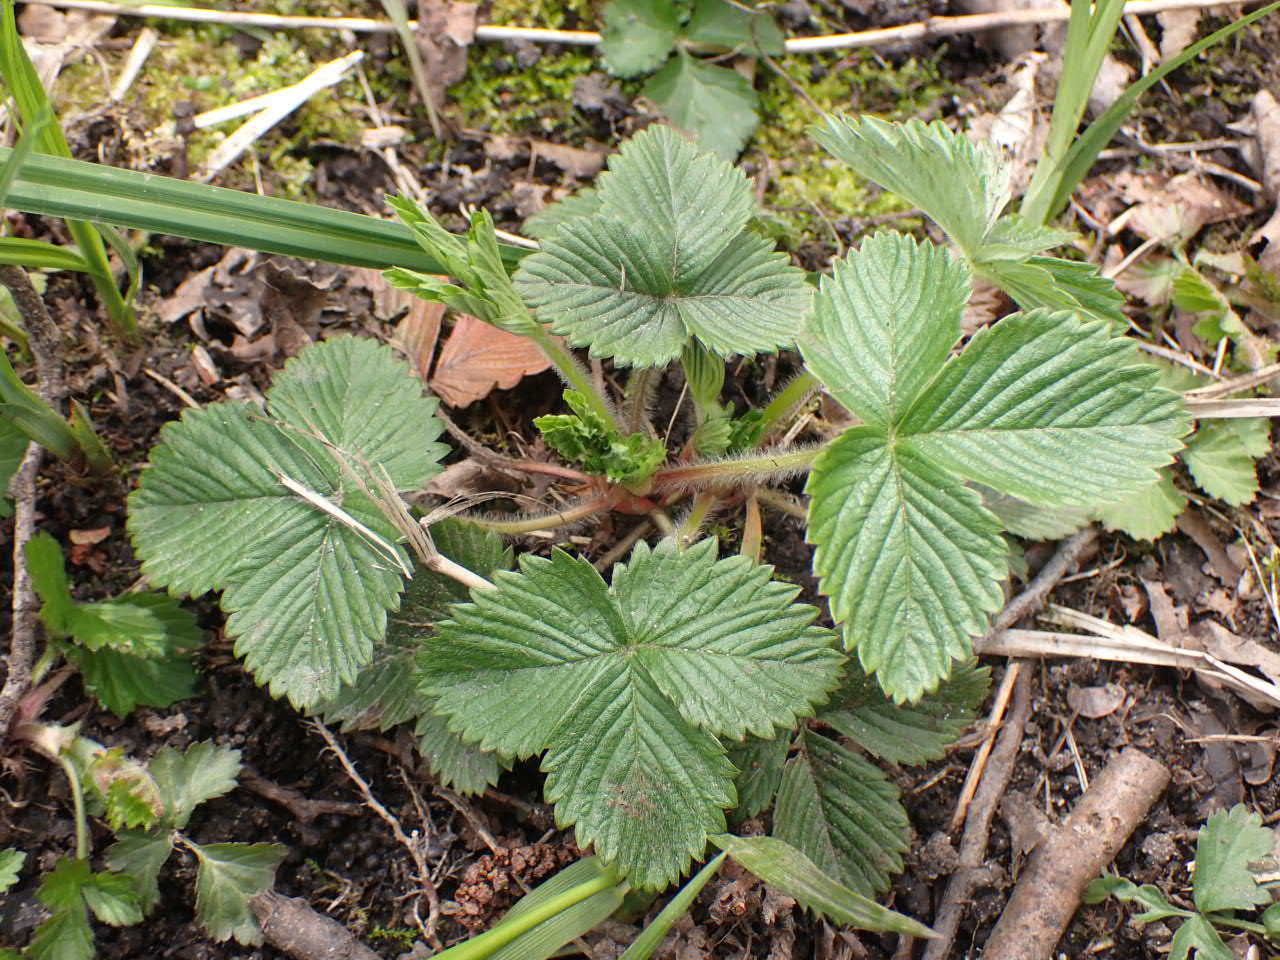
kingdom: Plantae
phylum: Tracheophyta
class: Magnoliopsida
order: Rosales
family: Rosaceae
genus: Fragaria
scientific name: Fragaria vesca
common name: Skov-jordbær
